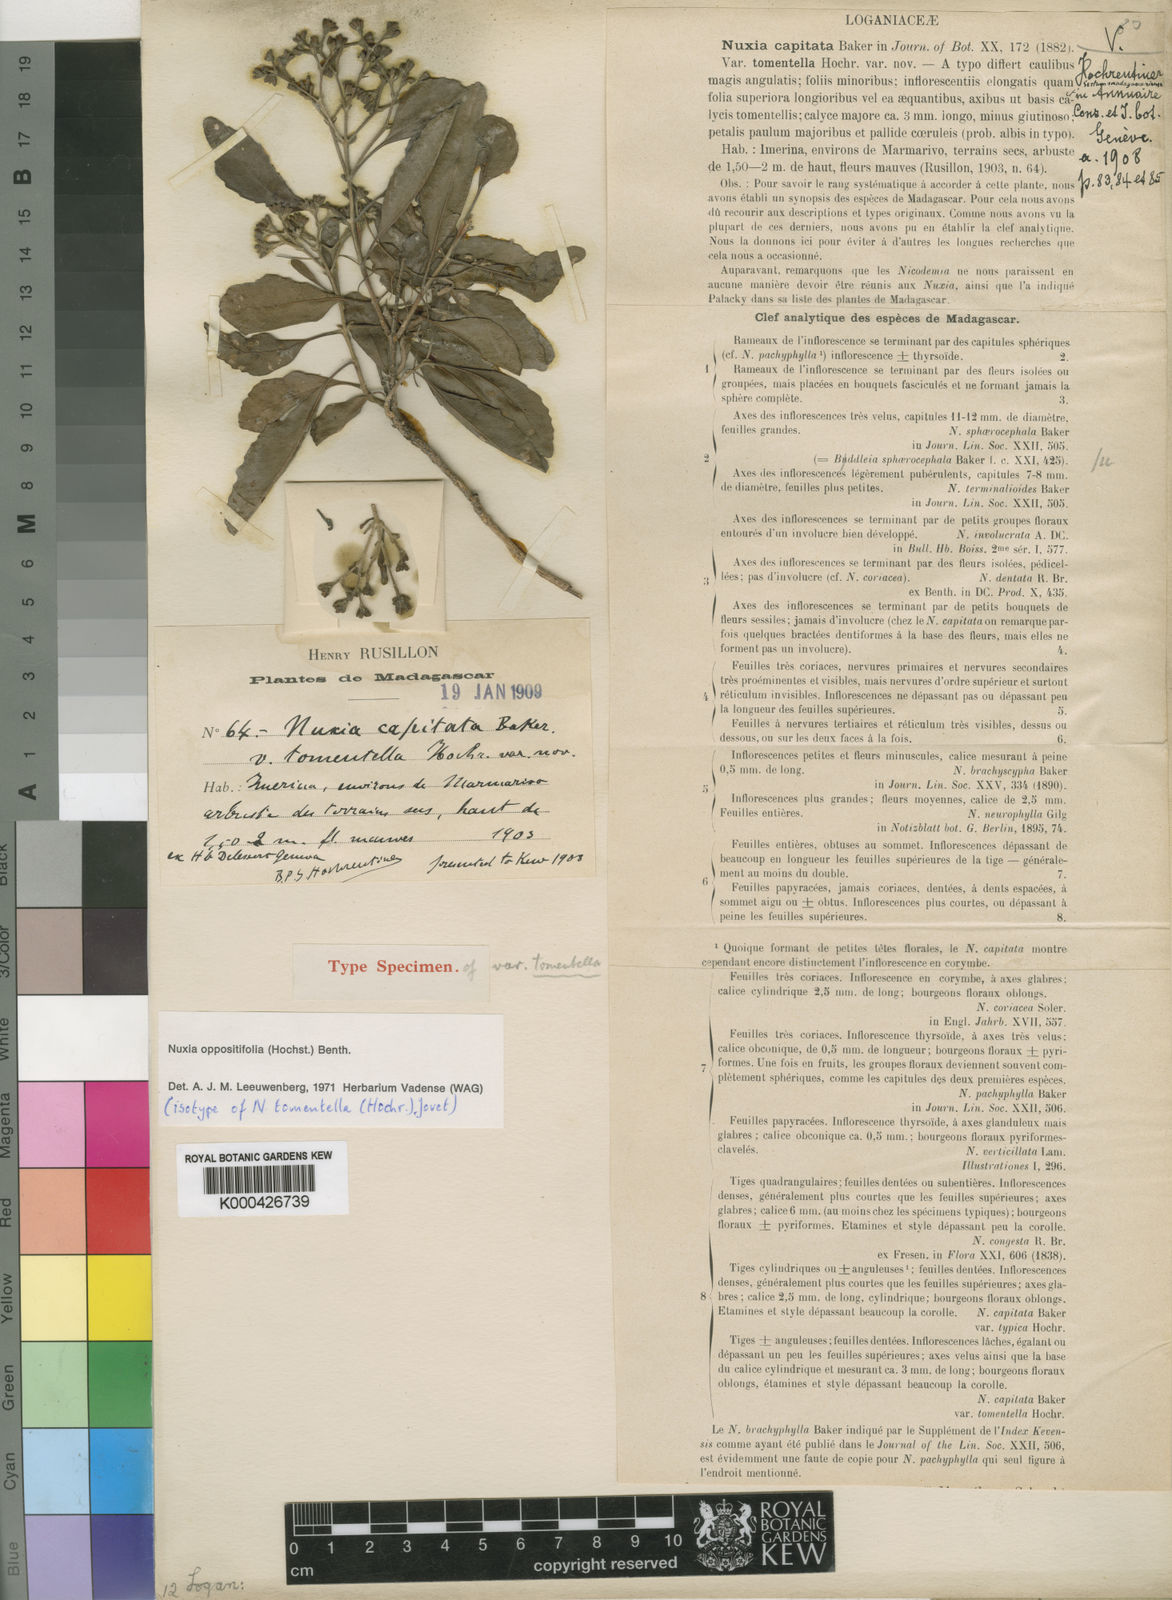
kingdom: Plantae
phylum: Tracheophyta
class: Magnoliopsida
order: Lamiales
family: Stilbaceae
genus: Nuxia
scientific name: Nuxia oppositifolia
